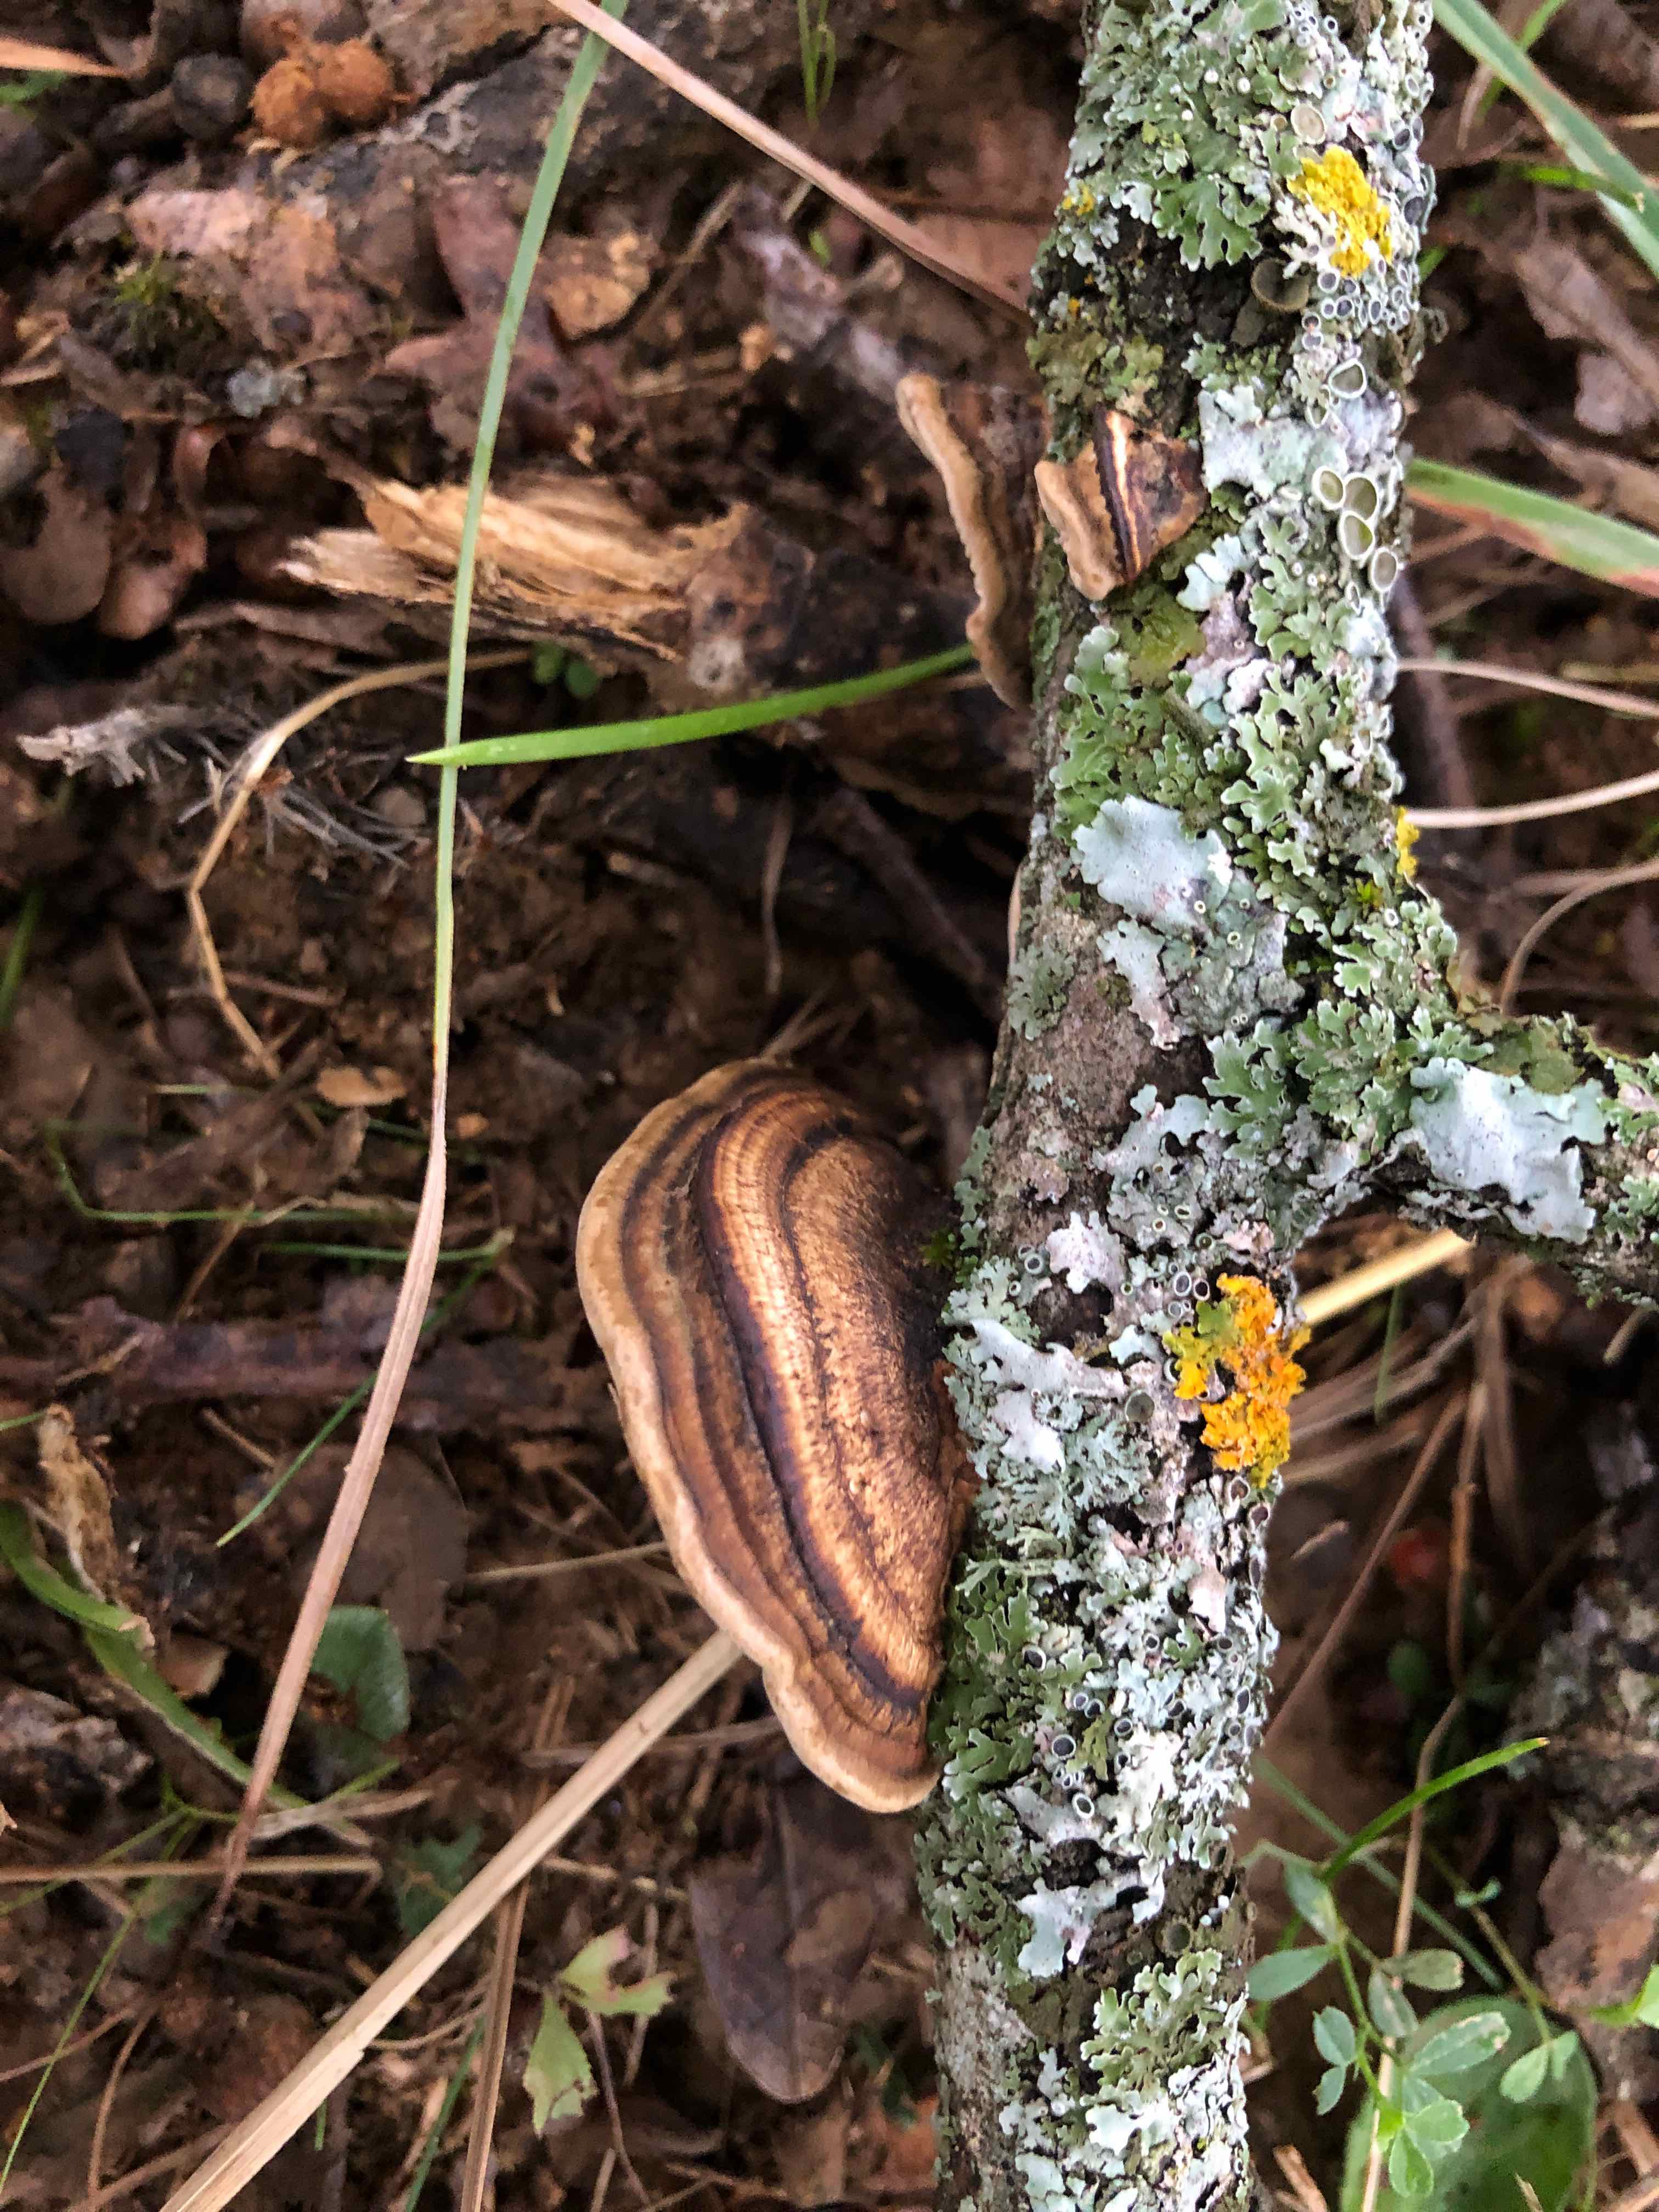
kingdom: Fungi
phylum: Basidiomycota
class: Agaricomycetes
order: Polyporales
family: Polyporaceae
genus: Daedaleopsis
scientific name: Daedaleopsis tricolor
